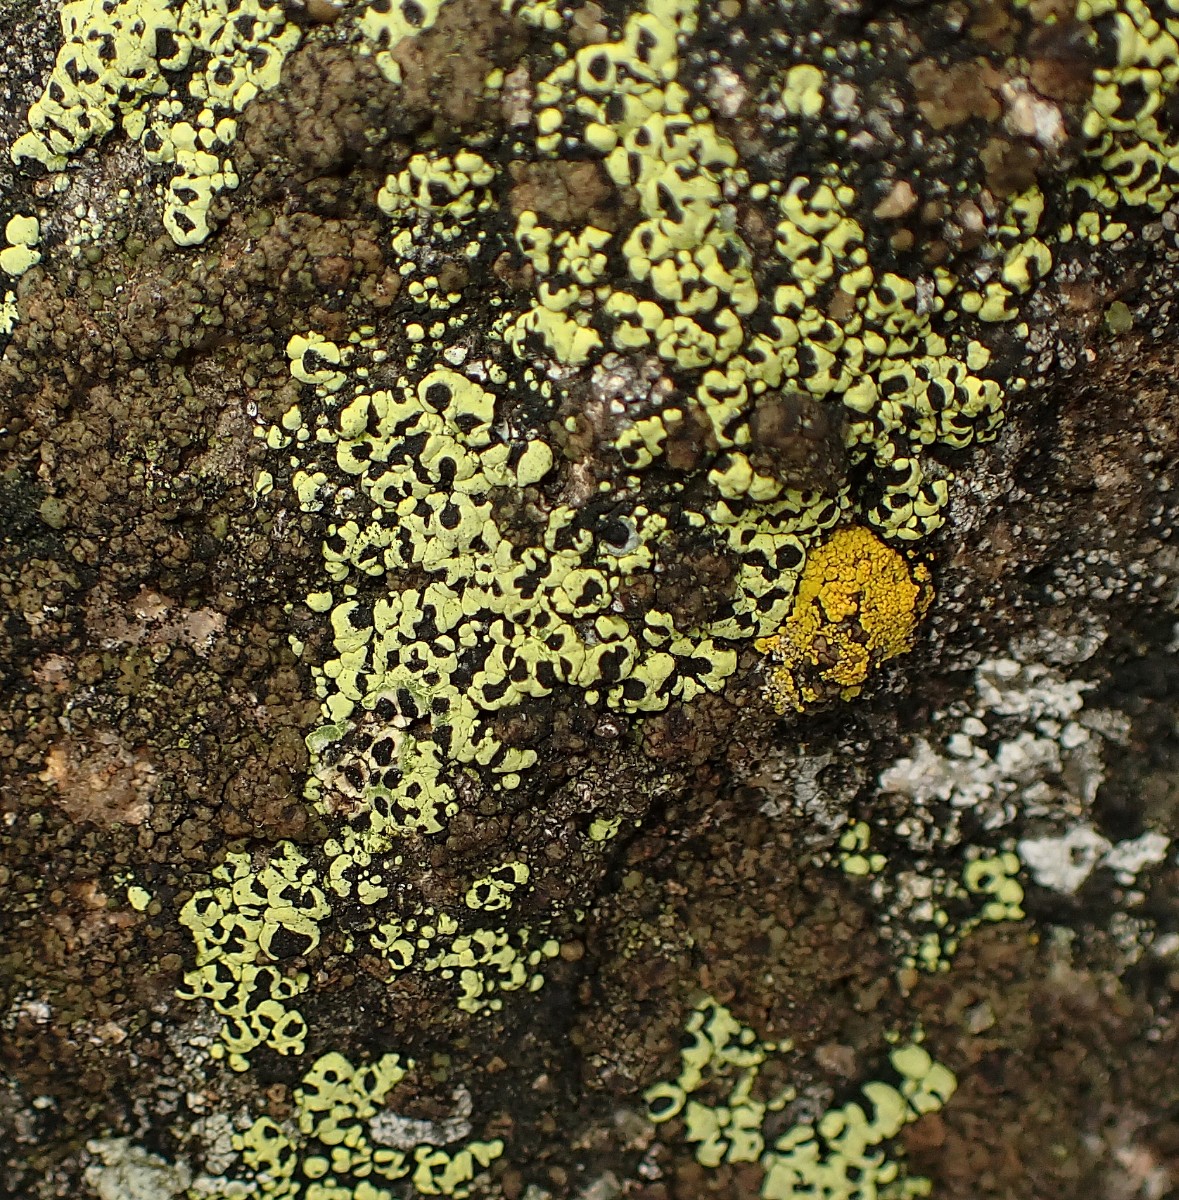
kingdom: Fungi
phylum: Ascomycota
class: Lecanoromycetes
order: Rhizocarpales
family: Rhizocarpaceae
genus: Rhizocarpon
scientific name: Rhizocarpon lecanorinum
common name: krave-landkortlav
